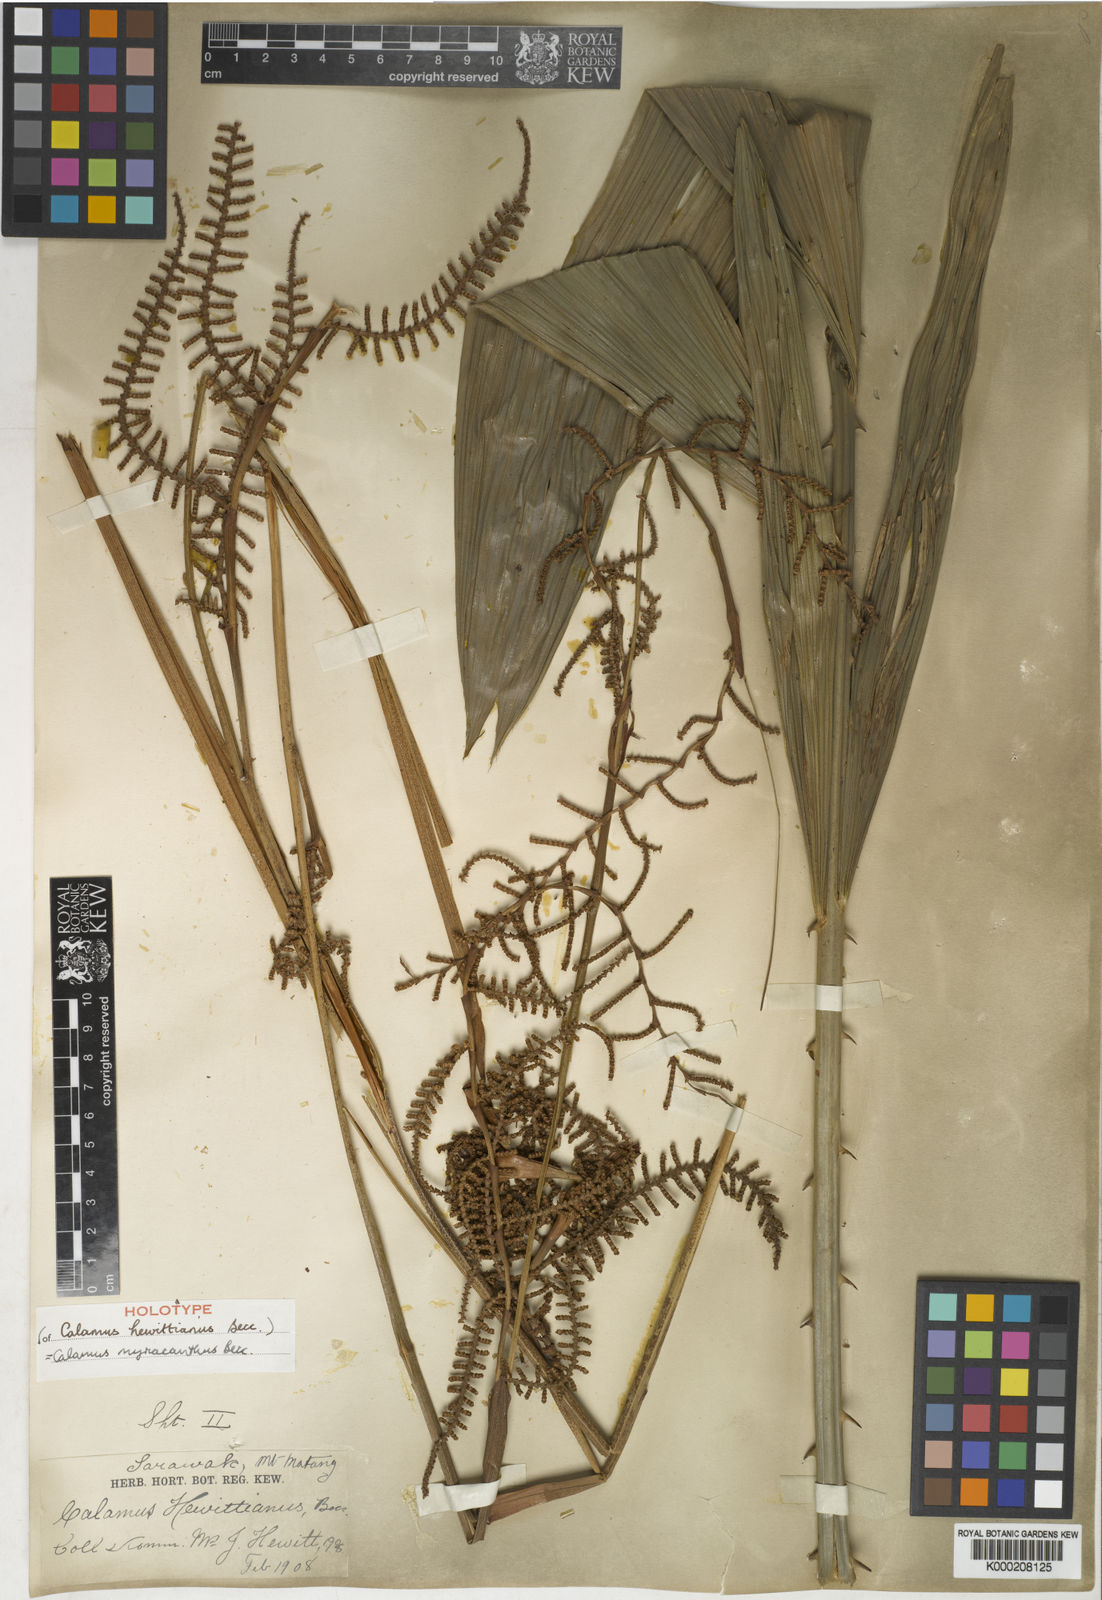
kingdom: Plantae
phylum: Tracheophyta
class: Liliopsida
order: Arecales
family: Arecaceae
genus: Calamus
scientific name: Calamus myriacanthus
